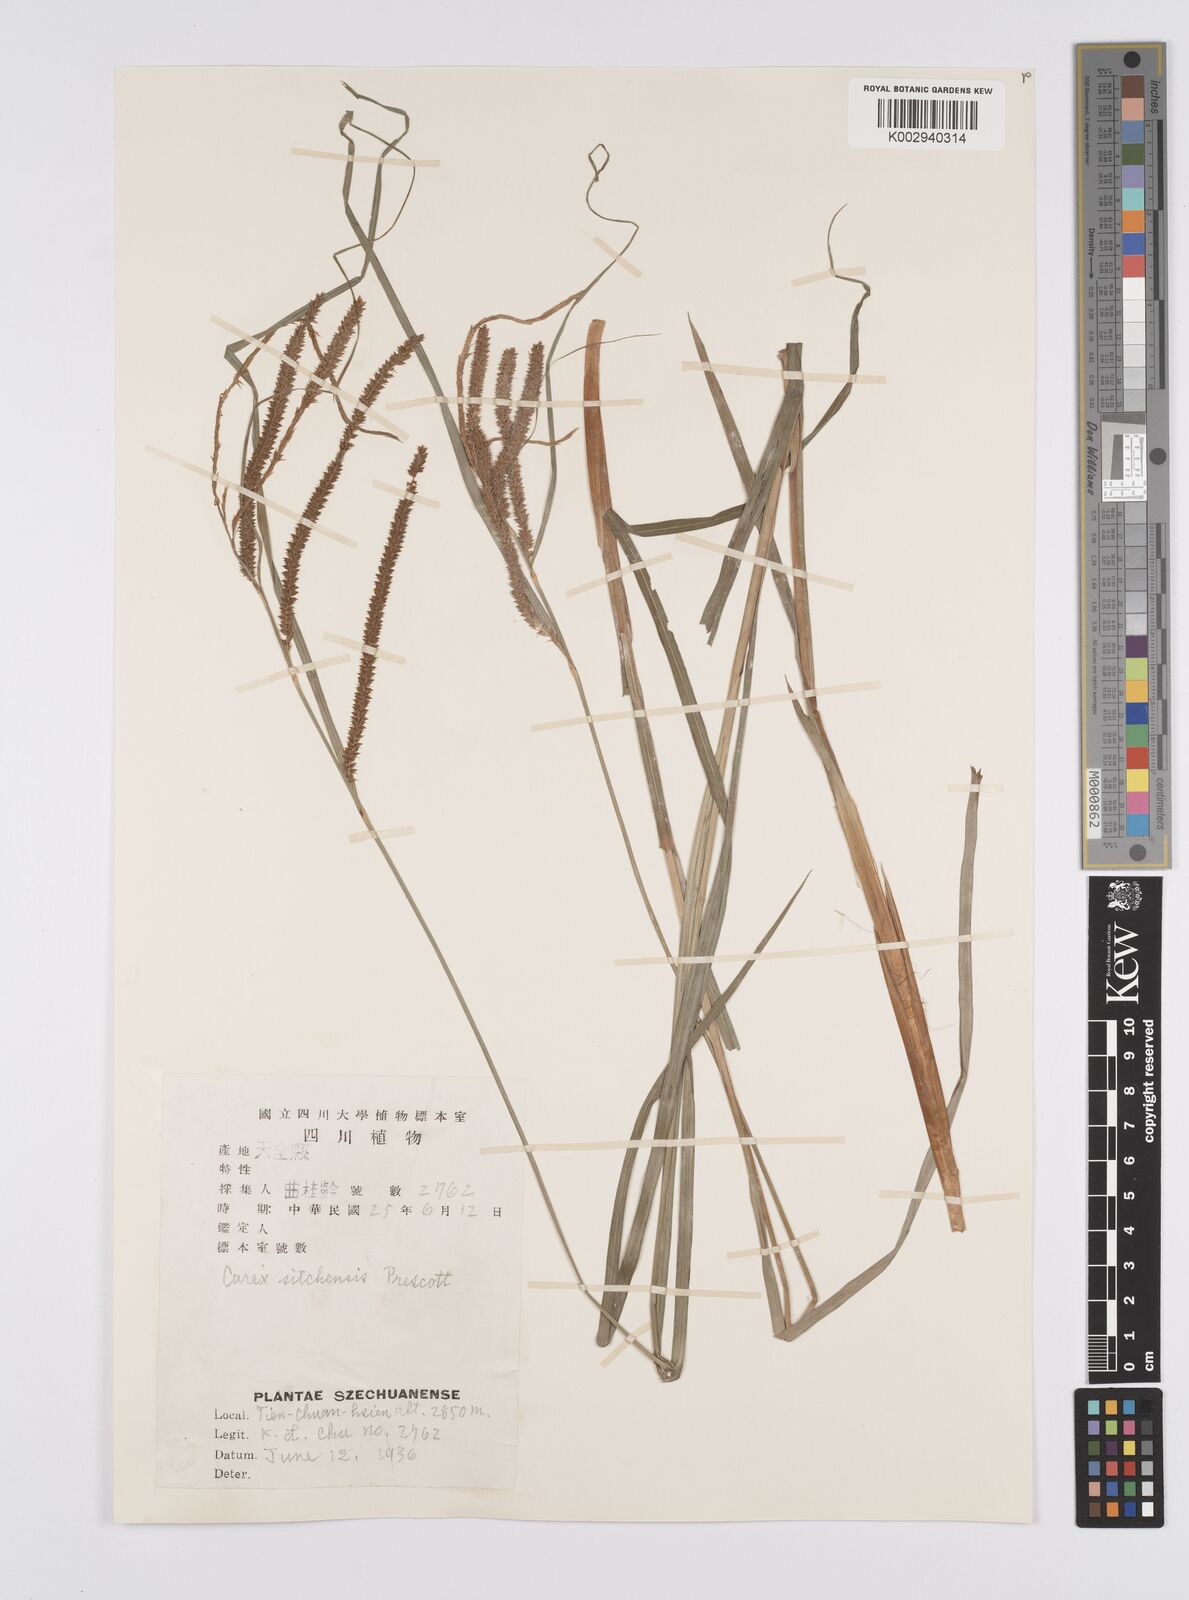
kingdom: Plantae
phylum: Tracheophyta
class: Liliopsida
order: Poales
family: Cyperaceae
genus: Carex
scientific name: Carex prescottiana
